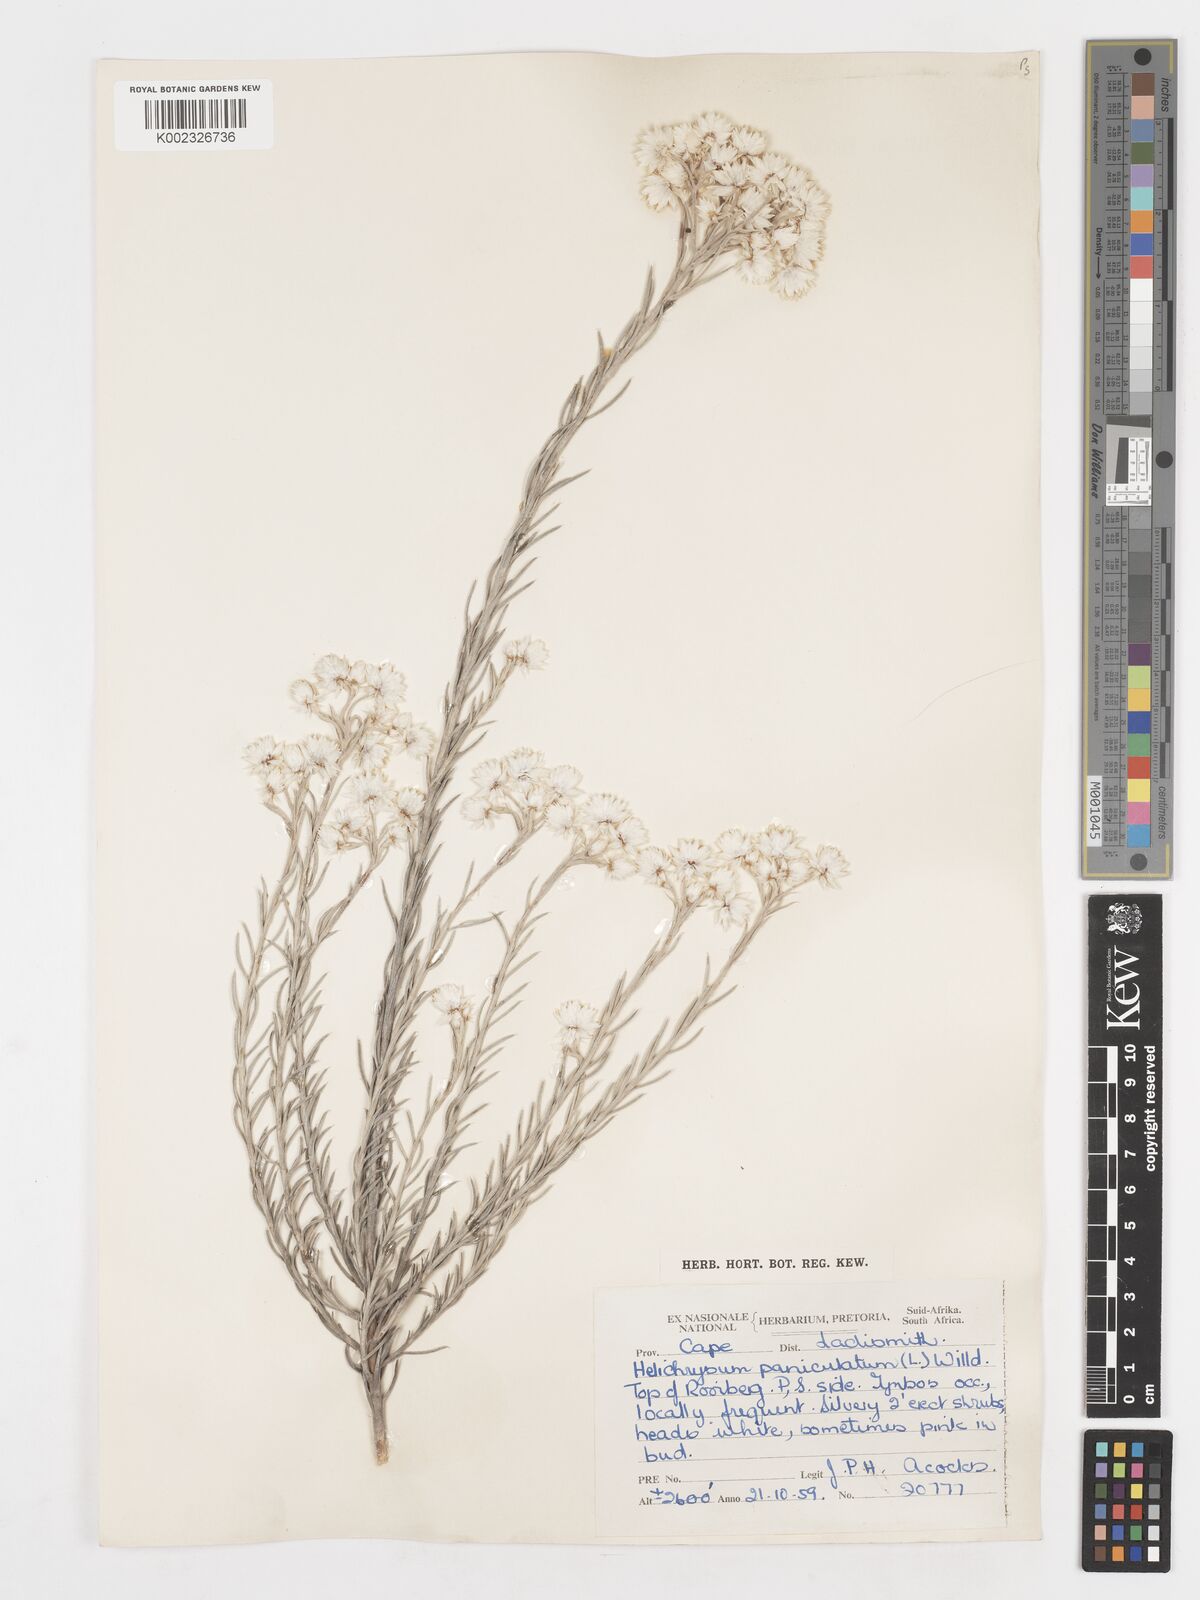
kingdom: Plantae
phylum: Tracheophyta
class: Magnoliopsida
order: Asterales
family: Asteraceae
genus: Achyranthemum
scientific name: Achyranthemum paniculatum
